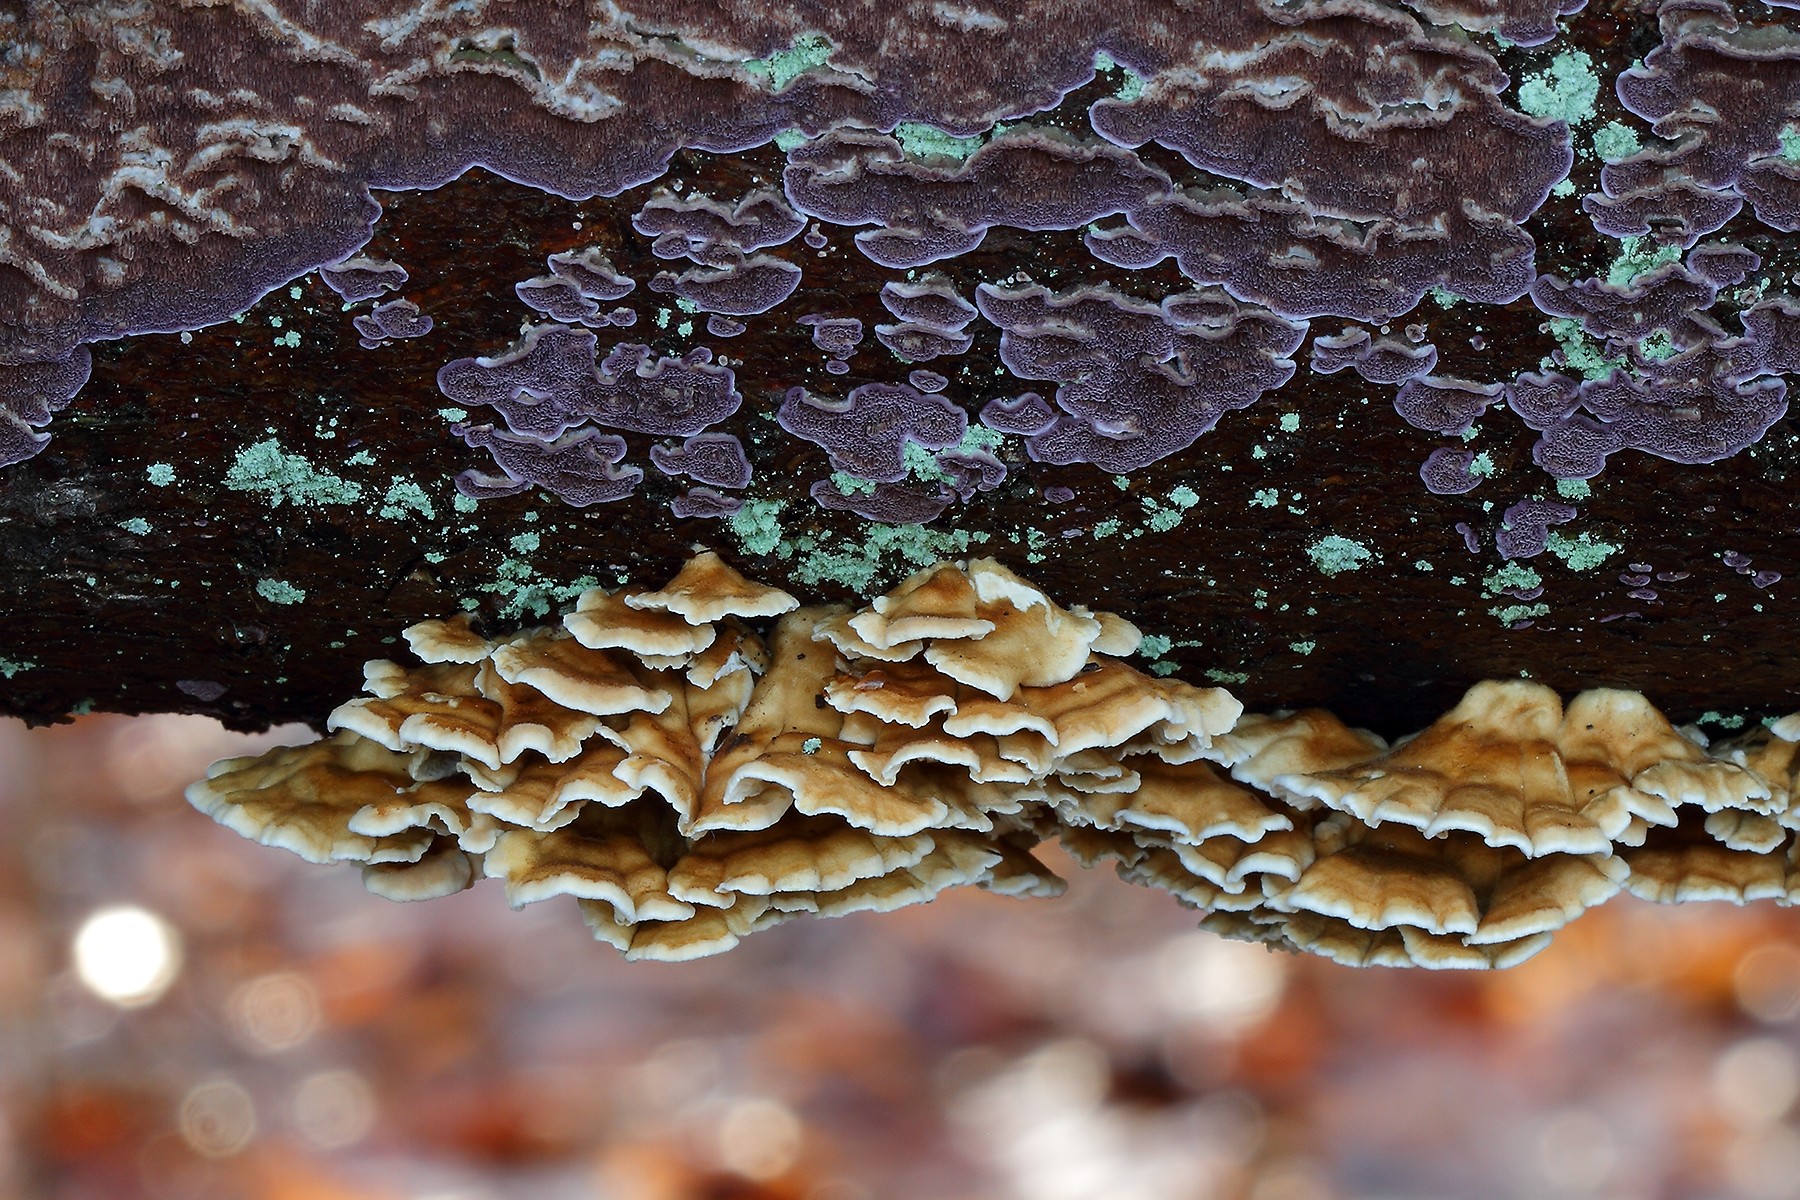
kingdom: Fungi
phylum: Basidiomycota
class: Agaricomycetes
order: Amylocorticiales
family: Amylocorticiaceae
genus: Plicaturopsis
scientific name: Plicaturopsis crispa
